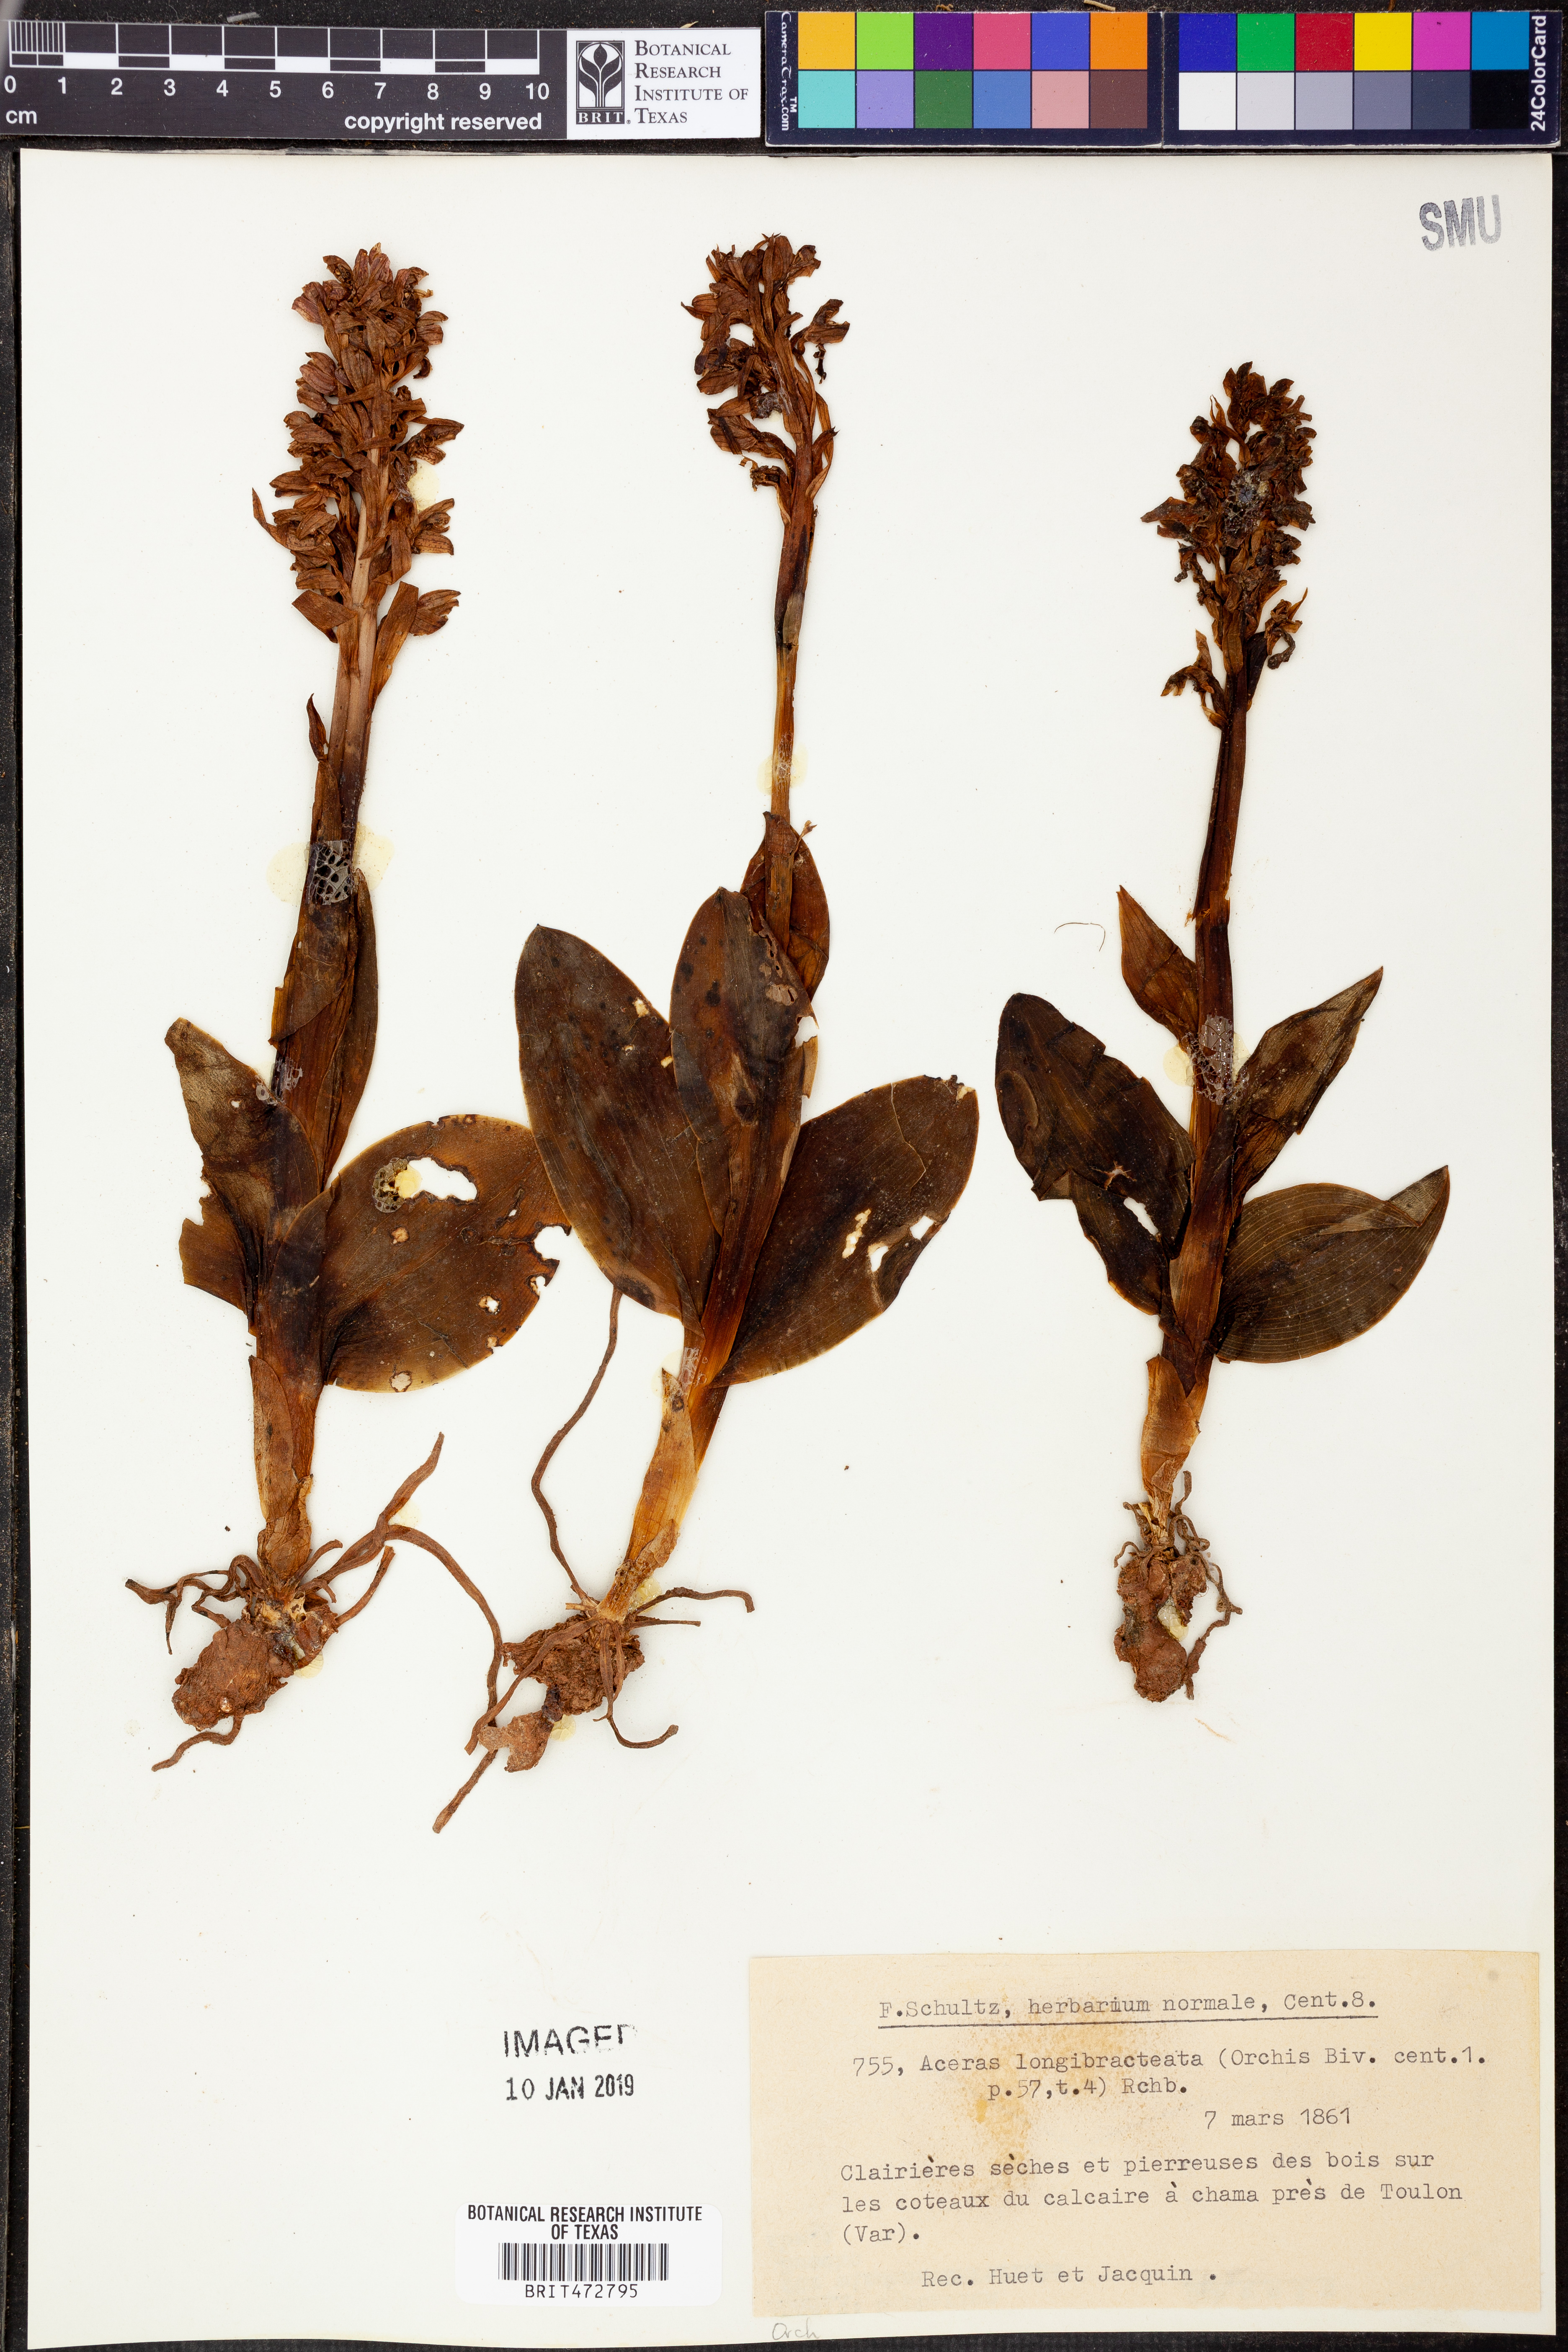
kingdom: Plantae
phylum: Tracheophyta
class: Liliopsida
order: Asparagales
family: Orchidaceae
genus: Himantoglossum
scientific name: Himantoglossum robertianum
